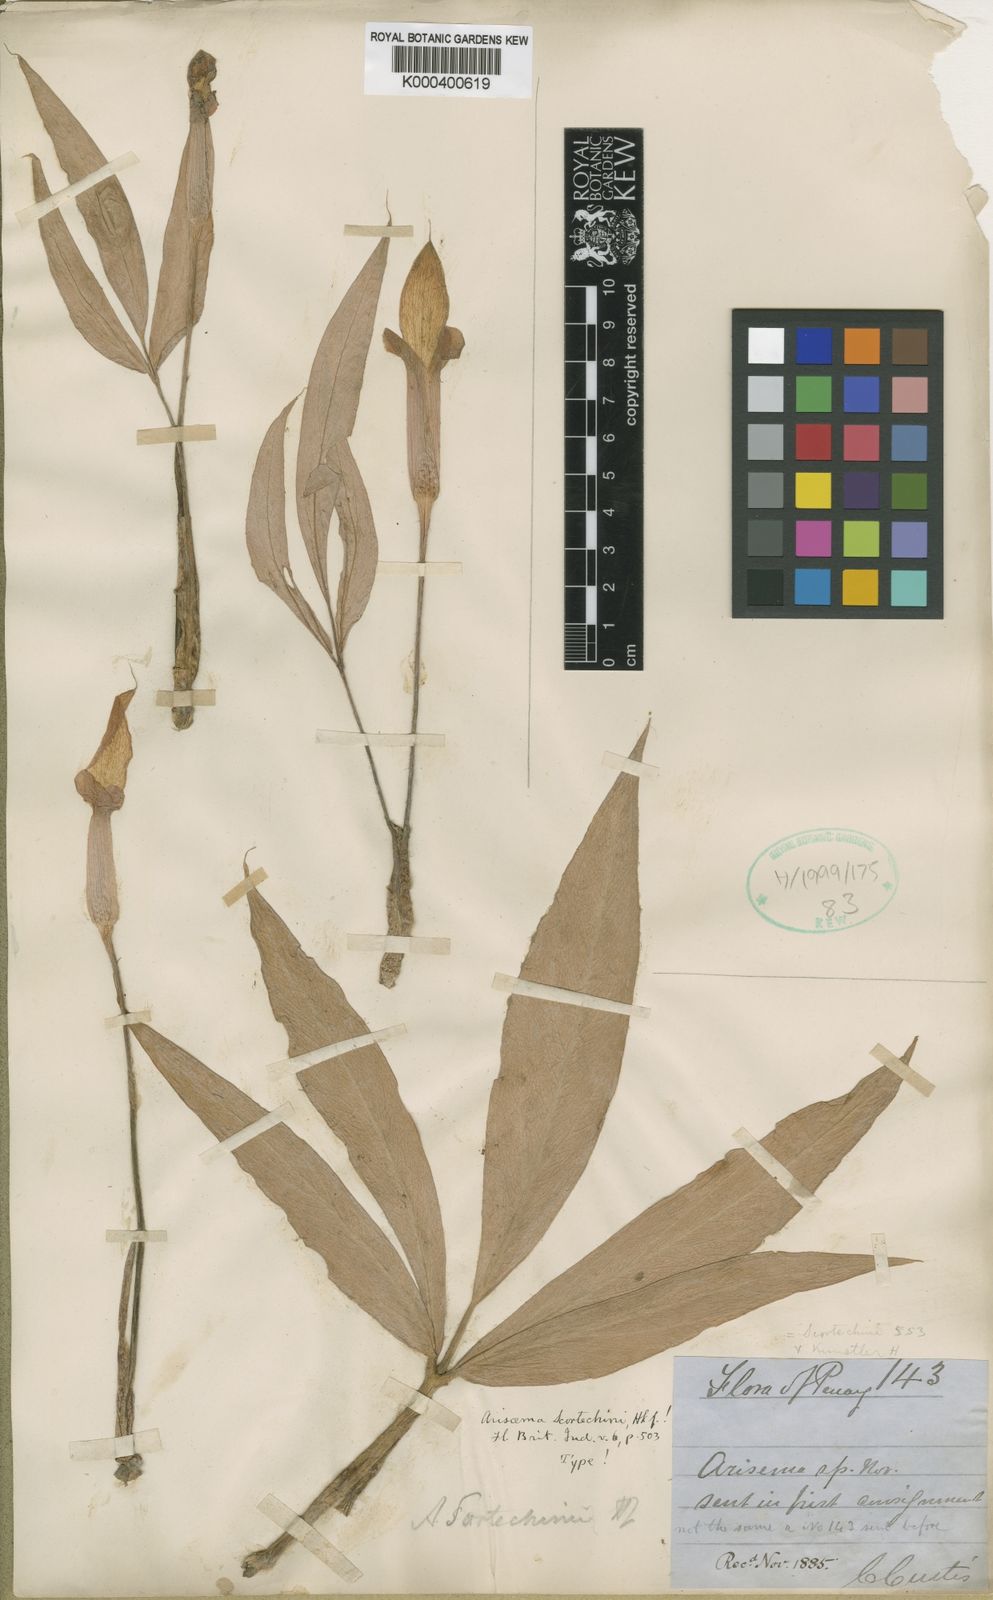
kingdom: Plantae
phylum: Tracheophyta
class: Liliopsida
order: Alismatales
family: Araceae
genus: Arisaema
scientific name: Arisaema scortechinii
